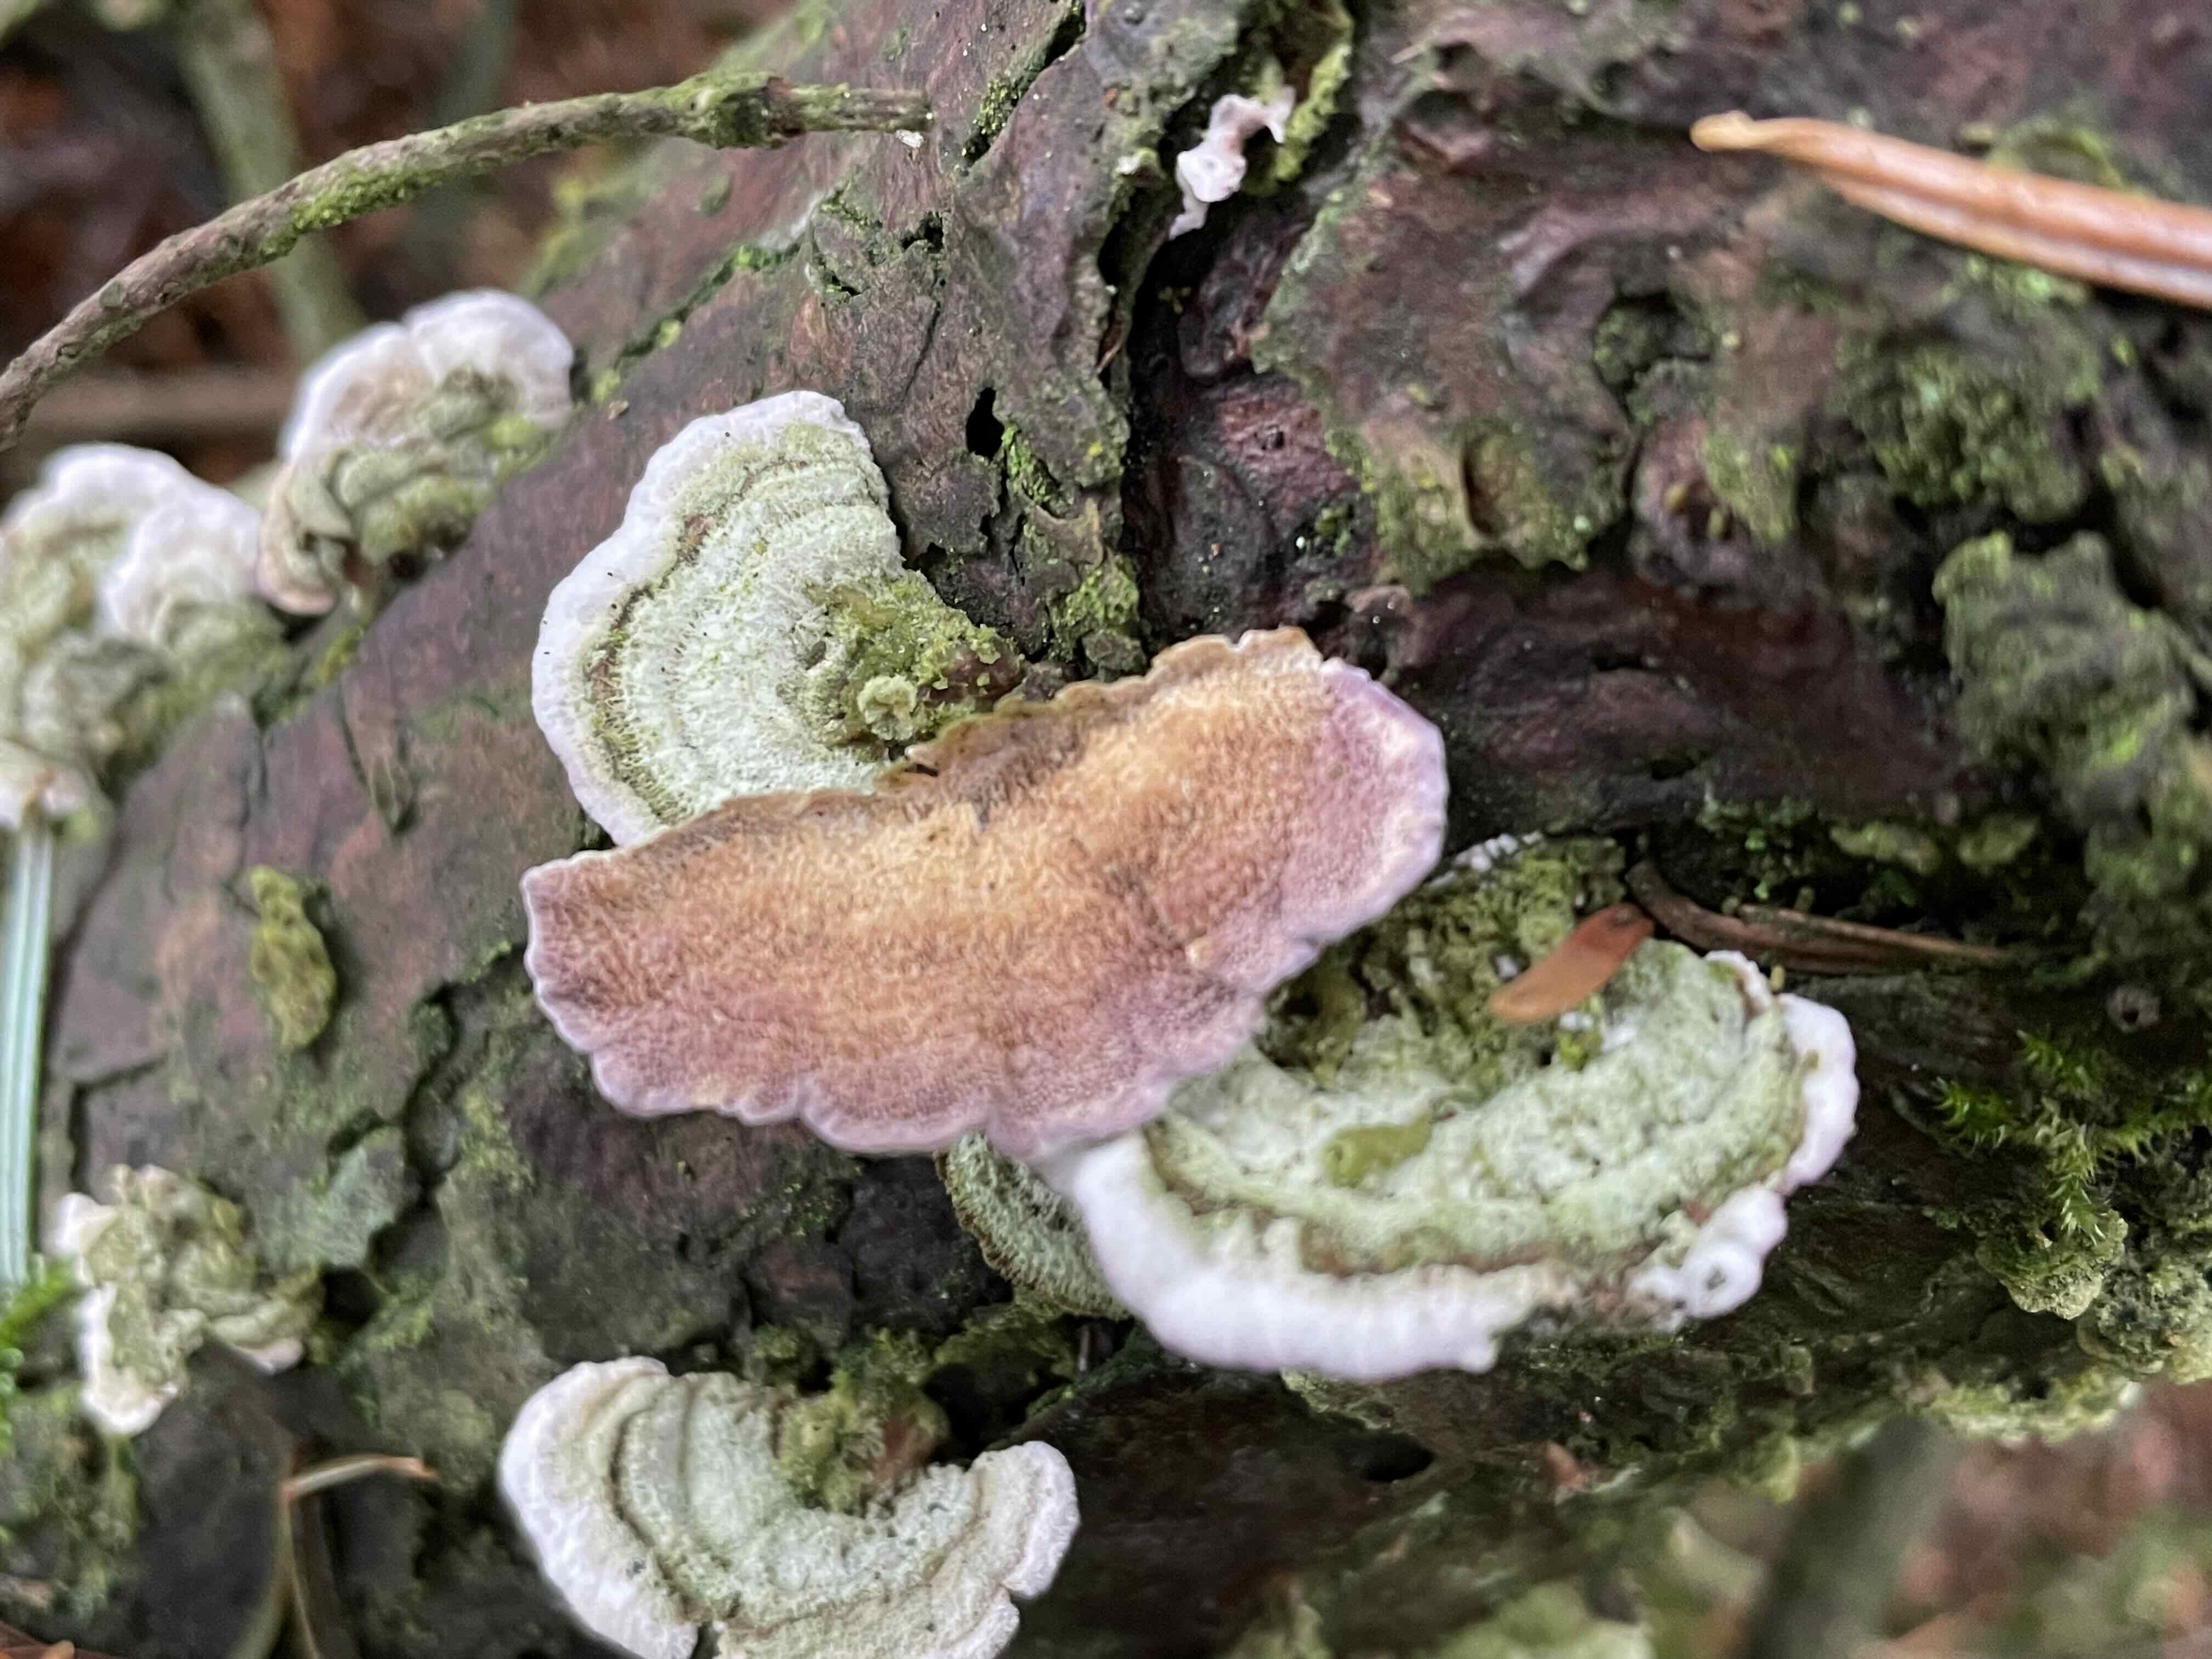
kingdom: Fungi
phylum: Basidiomycota
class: Agaricomycetes
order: Hymenochaetales
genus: Trichaptum
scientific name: Trichaptum abietinum
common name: almindelig violporesvamp
